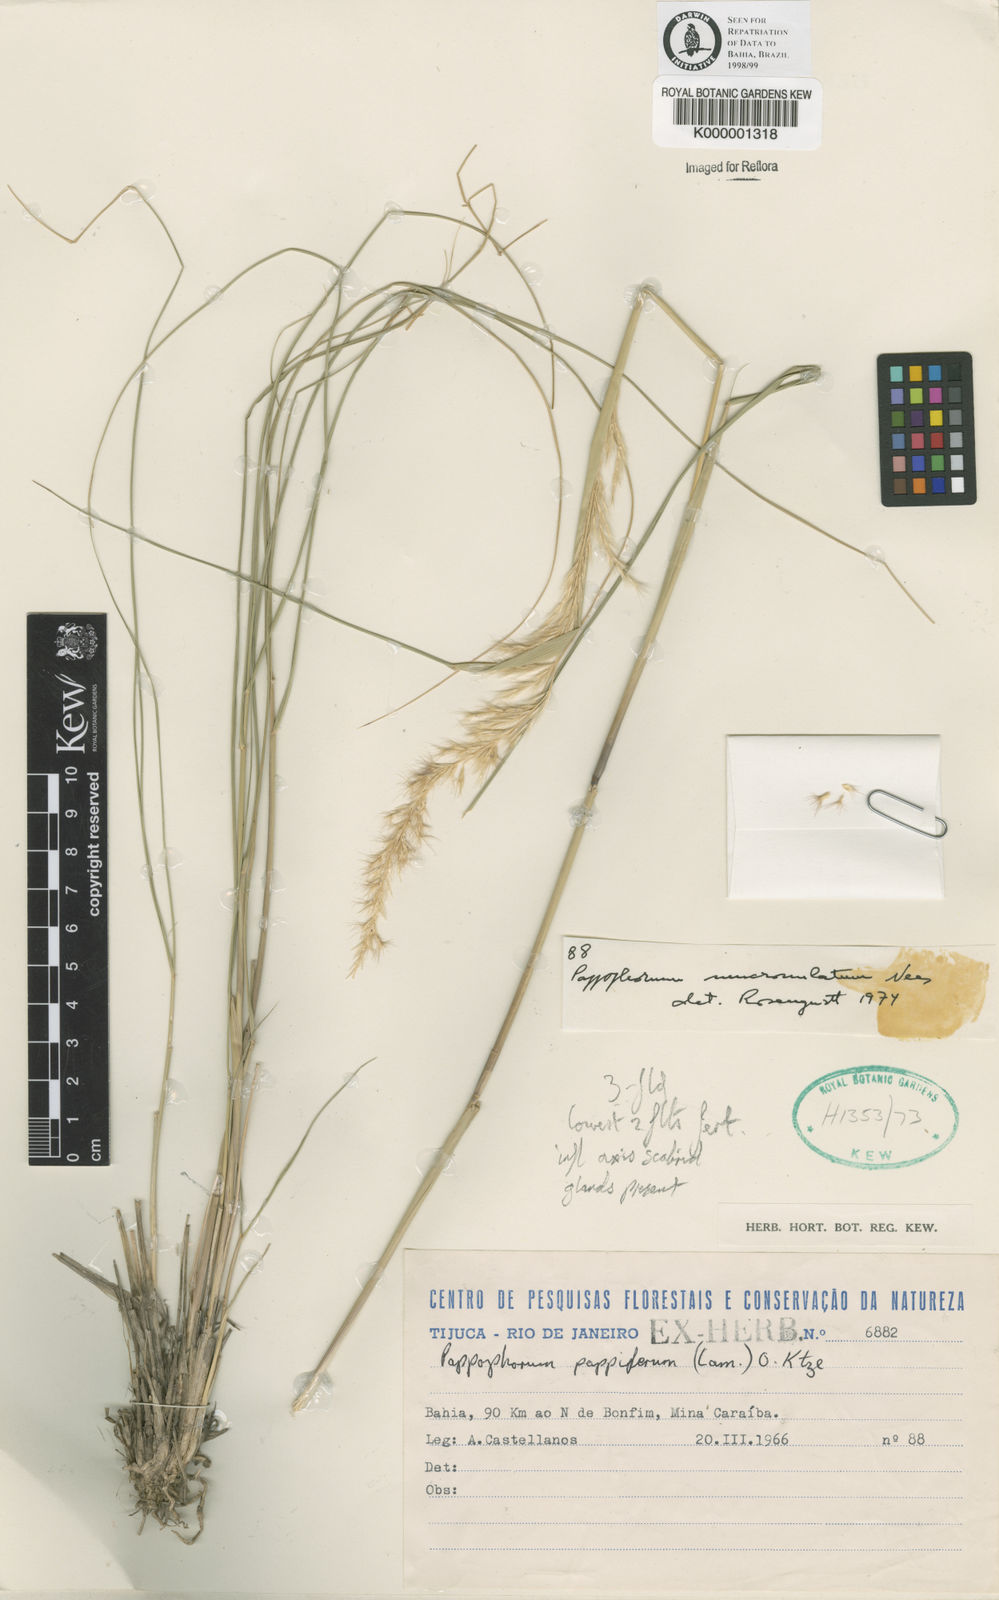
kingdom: Plantae
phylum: Tracheophyta
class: Liliopsida
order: Poales
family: Poaceae
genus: Pappophorum
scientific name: Pappophorum mucronulatum
